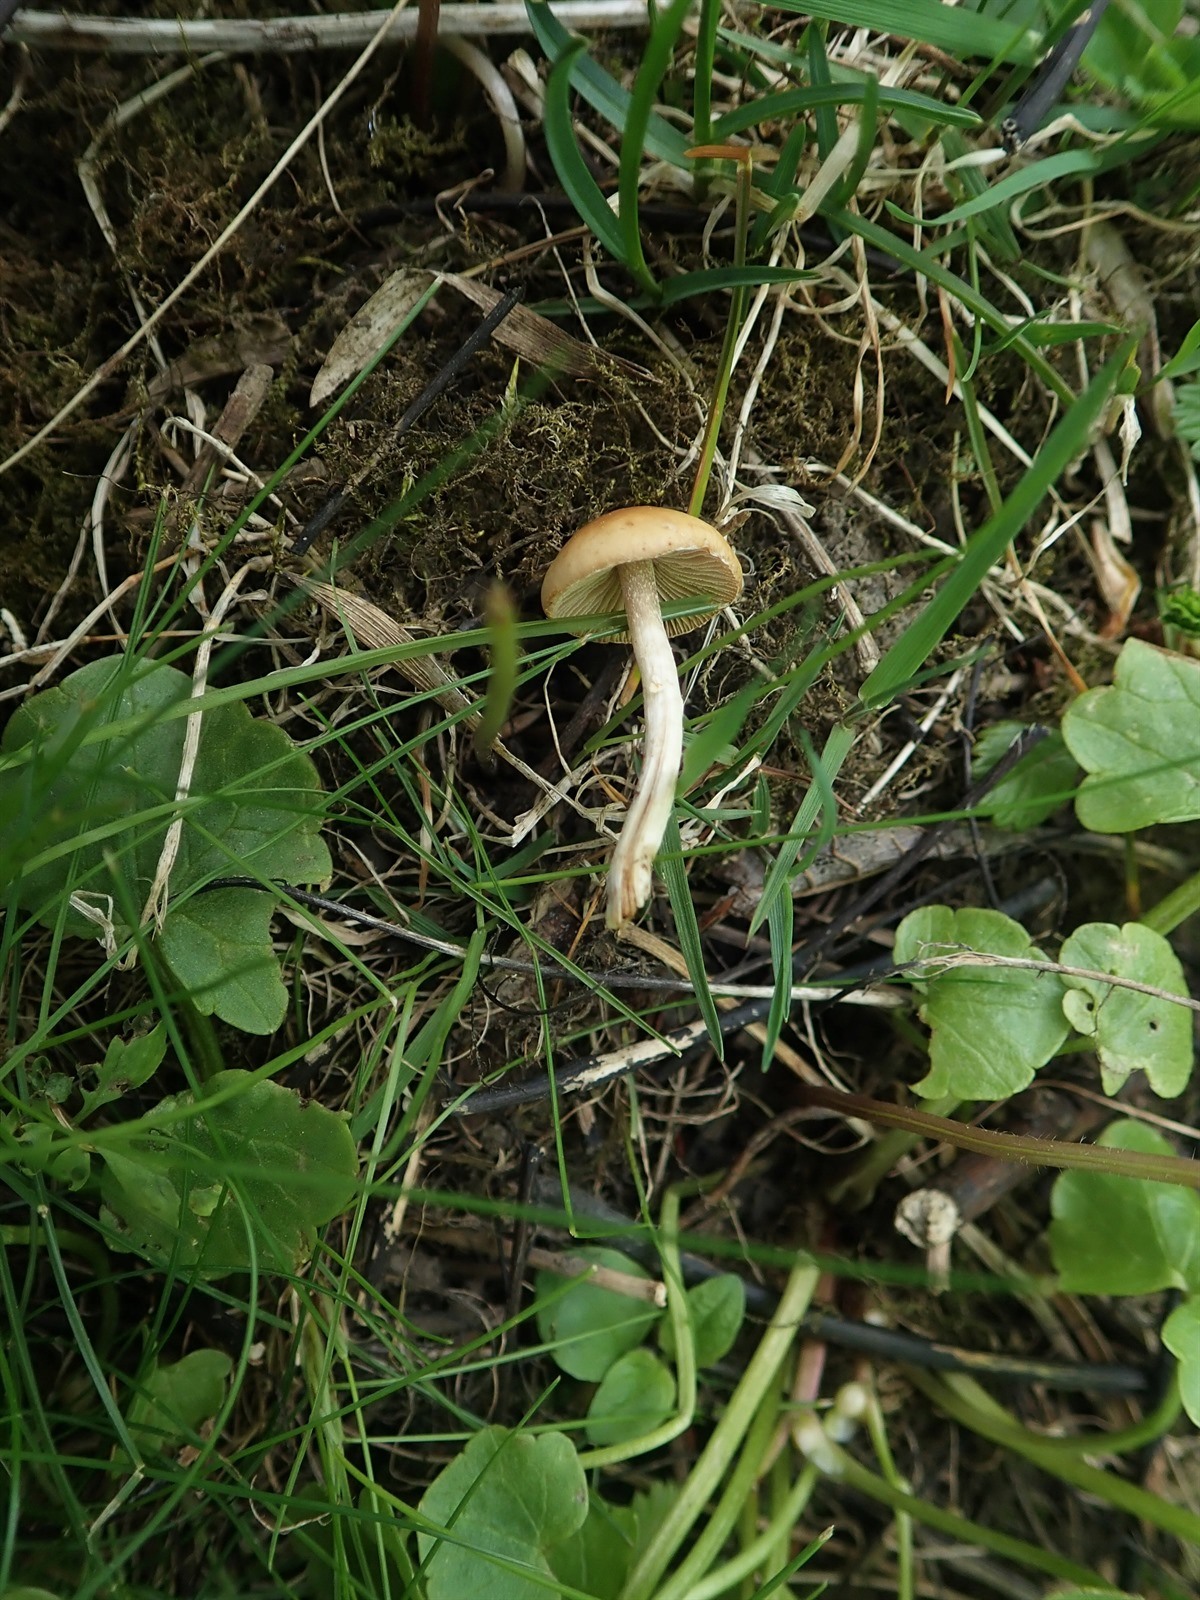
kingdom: Fungi
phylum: Basidiomycota
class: Agaricomycetes
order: Agaricales
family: Bolbitiaceae
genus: Conocybe
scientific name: Conocybe aporos
